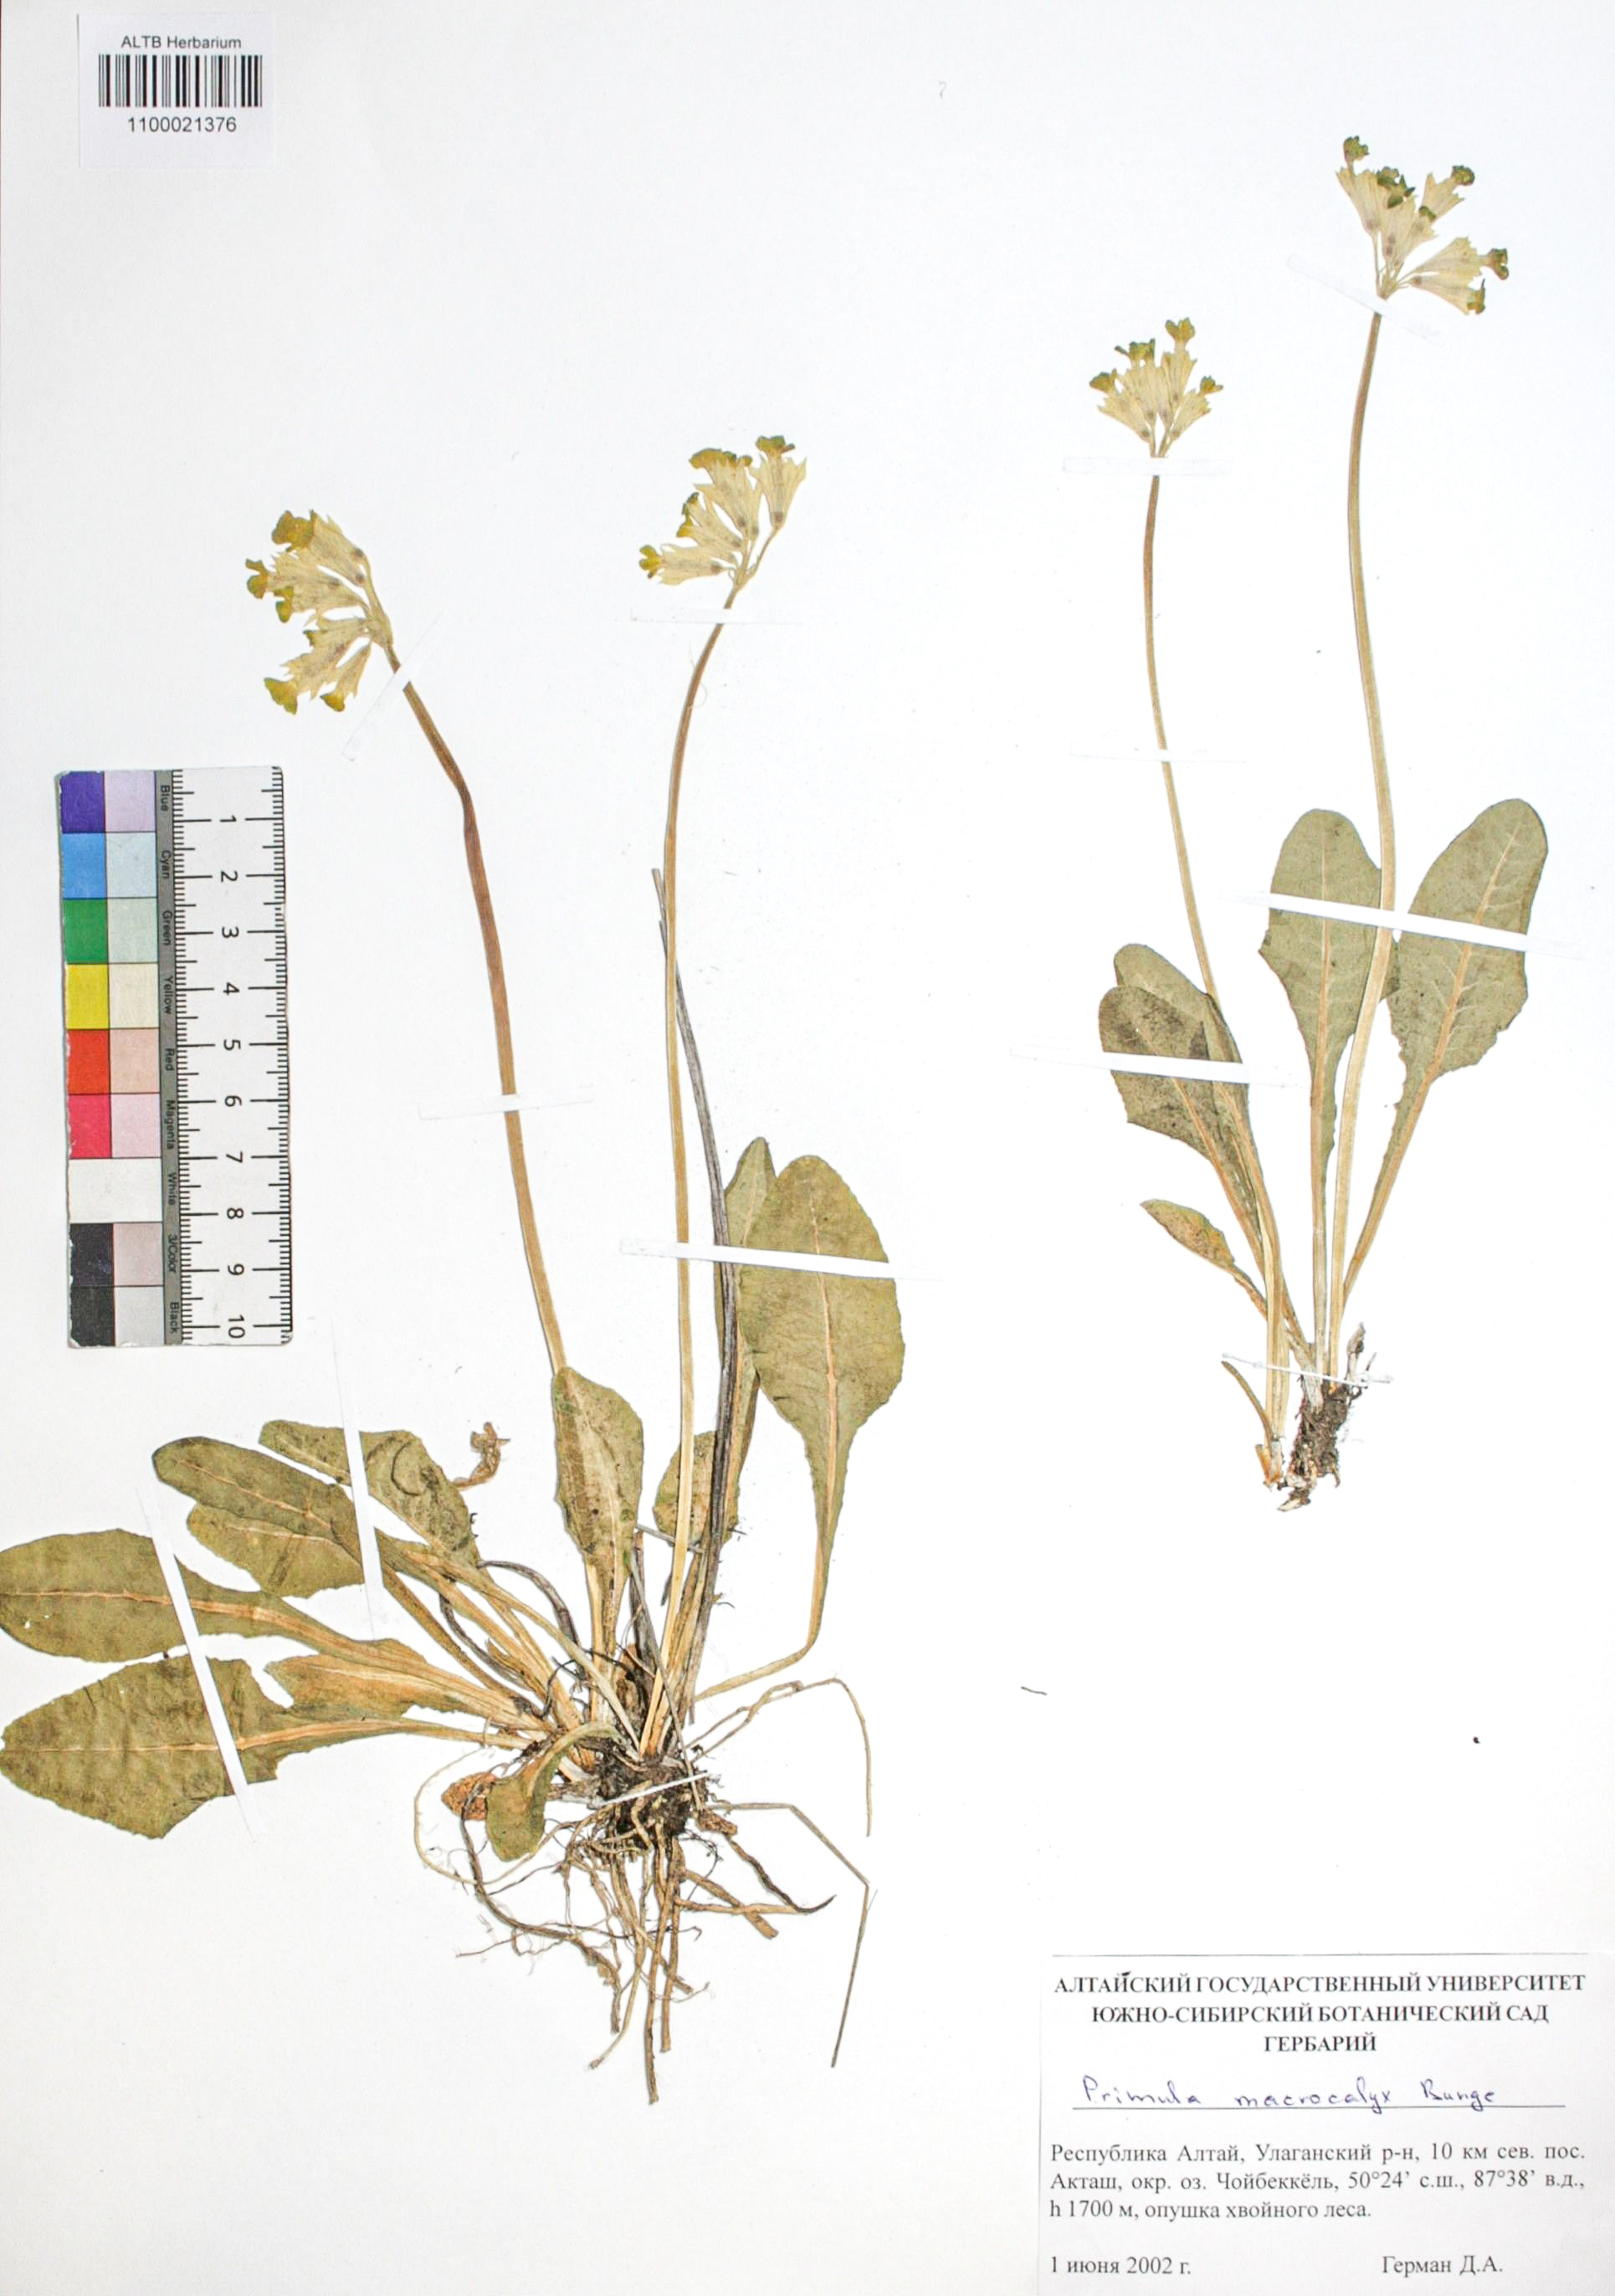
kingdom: Plantae
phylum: Tracheophyta
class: Magnoliopsida
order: Ericales
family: Primulaceae
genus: Primula
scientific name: Primula veris
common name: Cowslip
